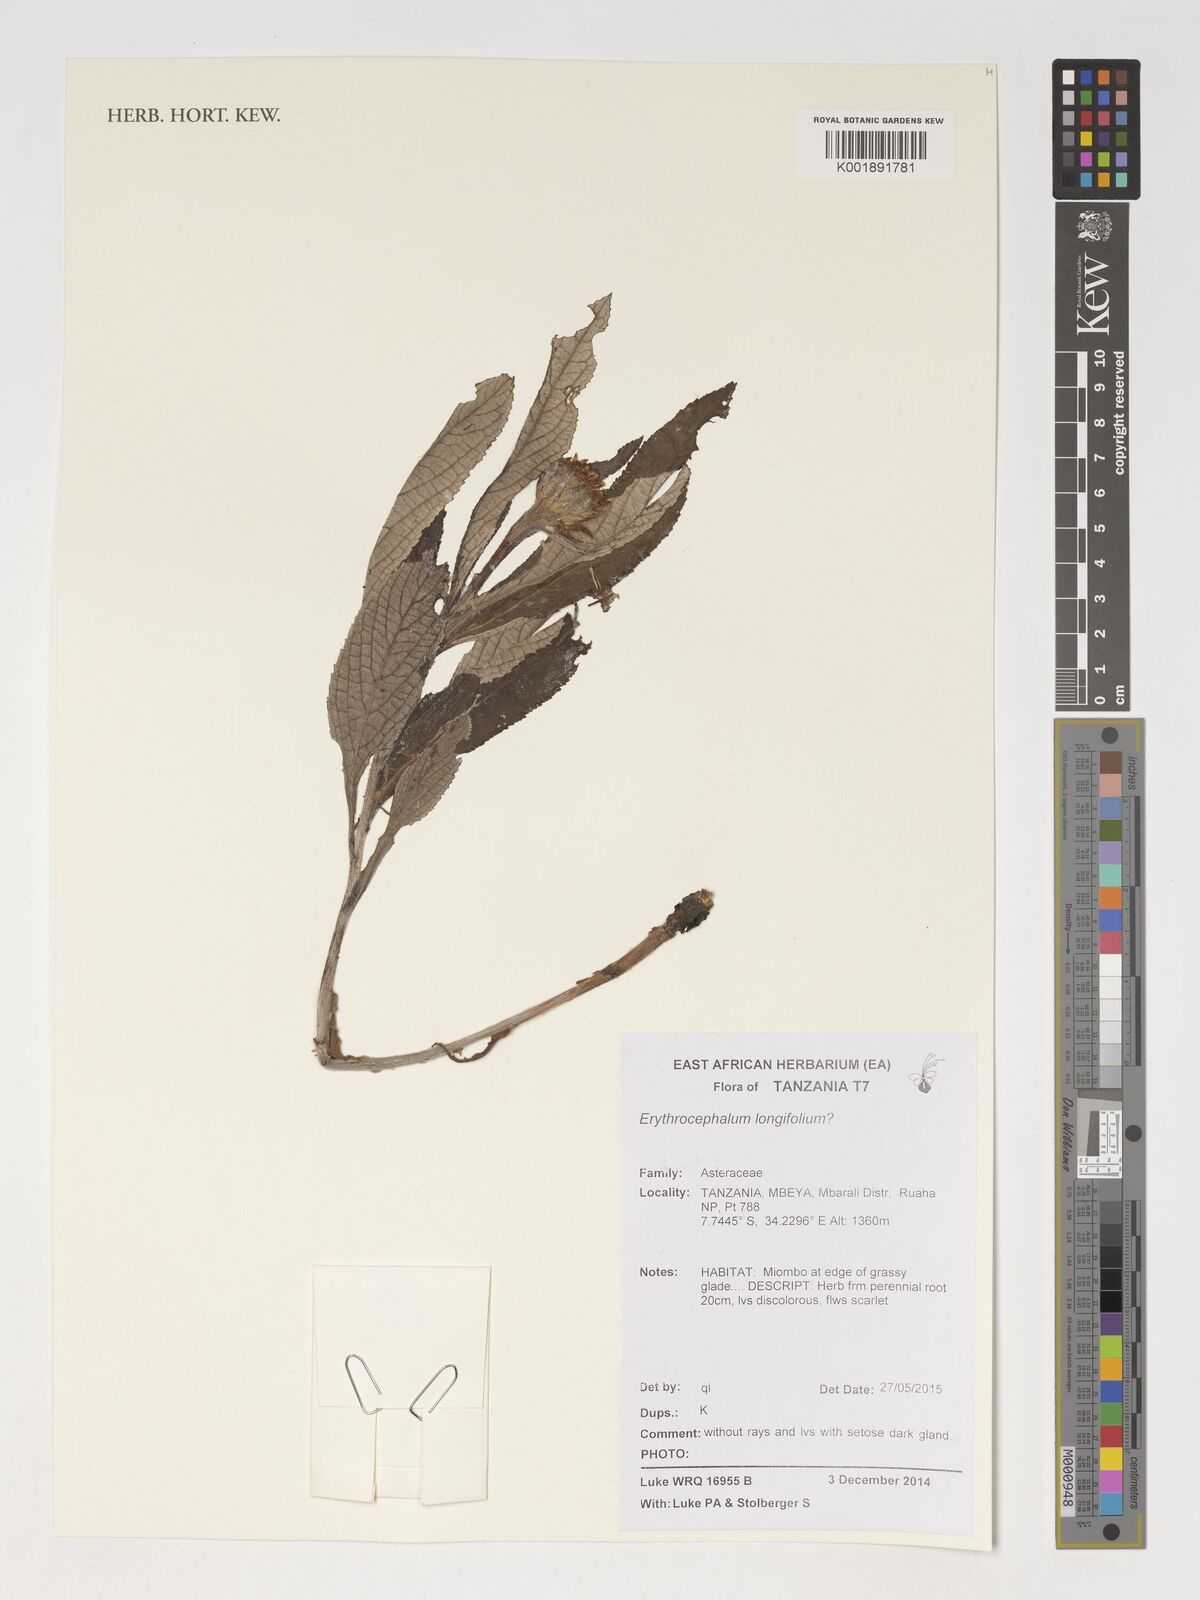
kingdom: Plantae
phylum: Tracheophyta
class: Magnoliopsida
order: Asterales
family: Asteraceae
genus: Erythrocephalum
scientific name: Erythrocephalum longifolium
